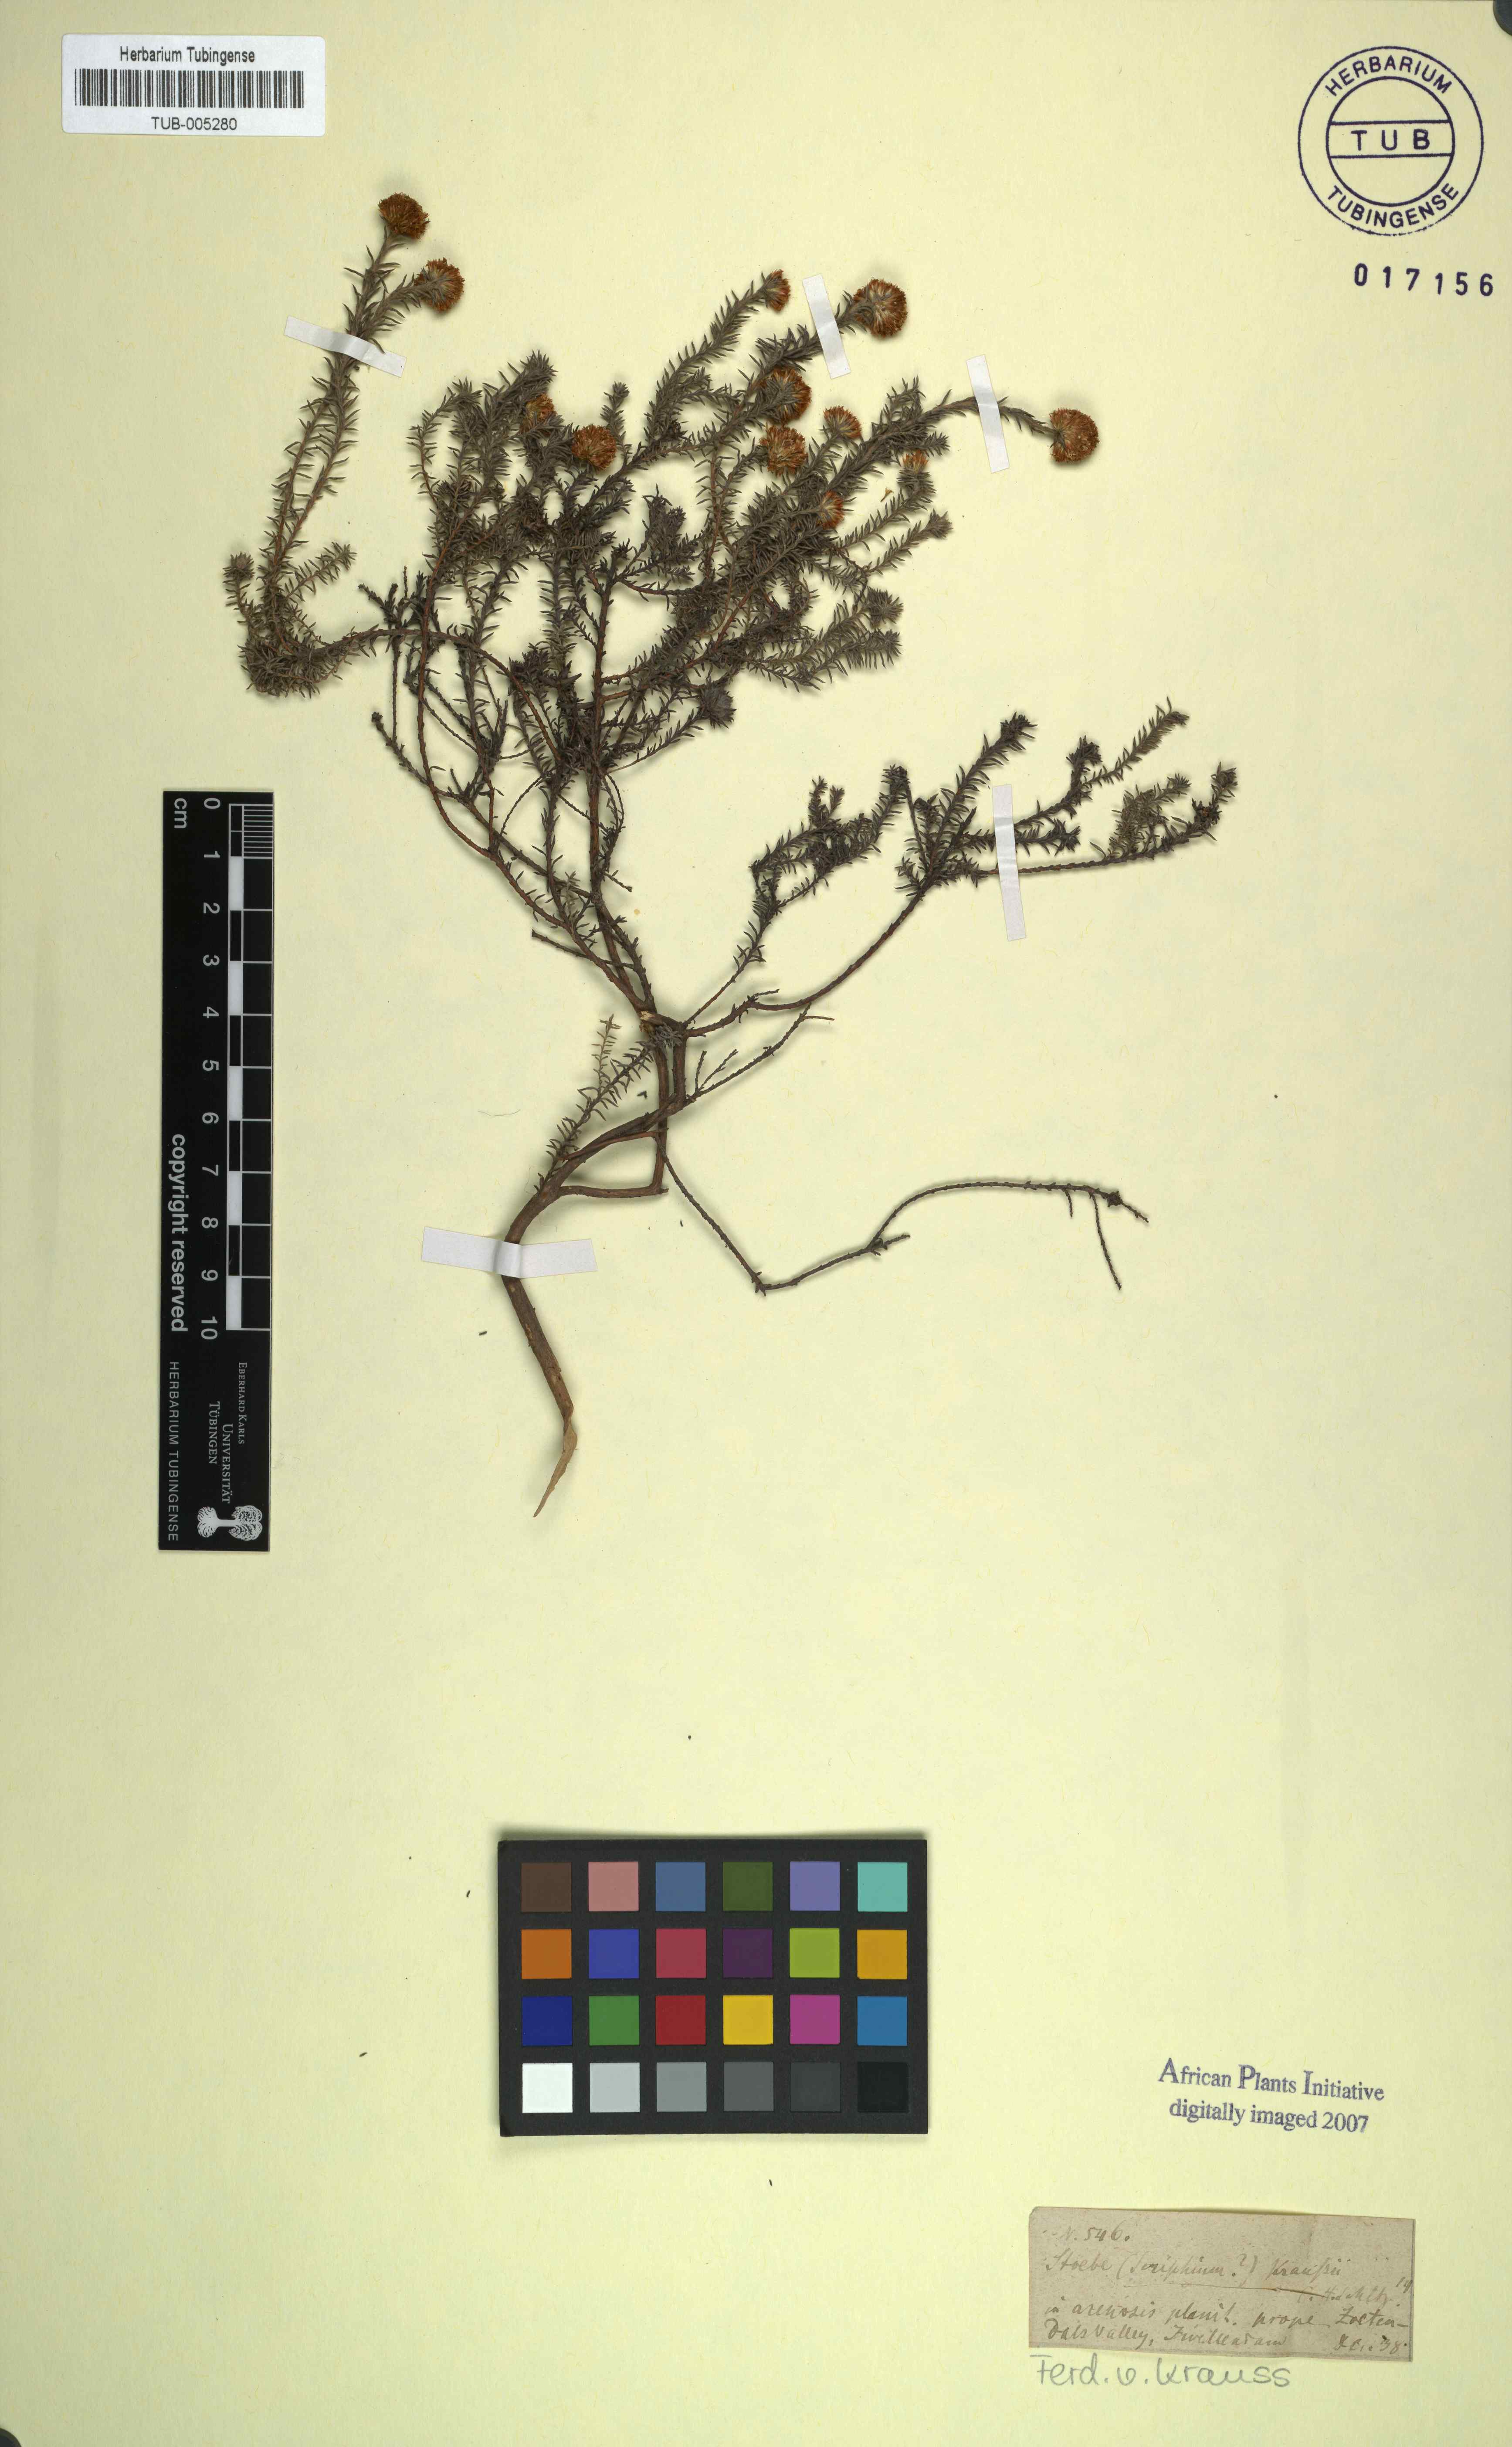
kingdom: Plantae
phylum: Tracheophyta
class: Magnoliopsida
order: Asterales
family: Asteraceae
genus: Stoebe
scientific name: Stoebe
